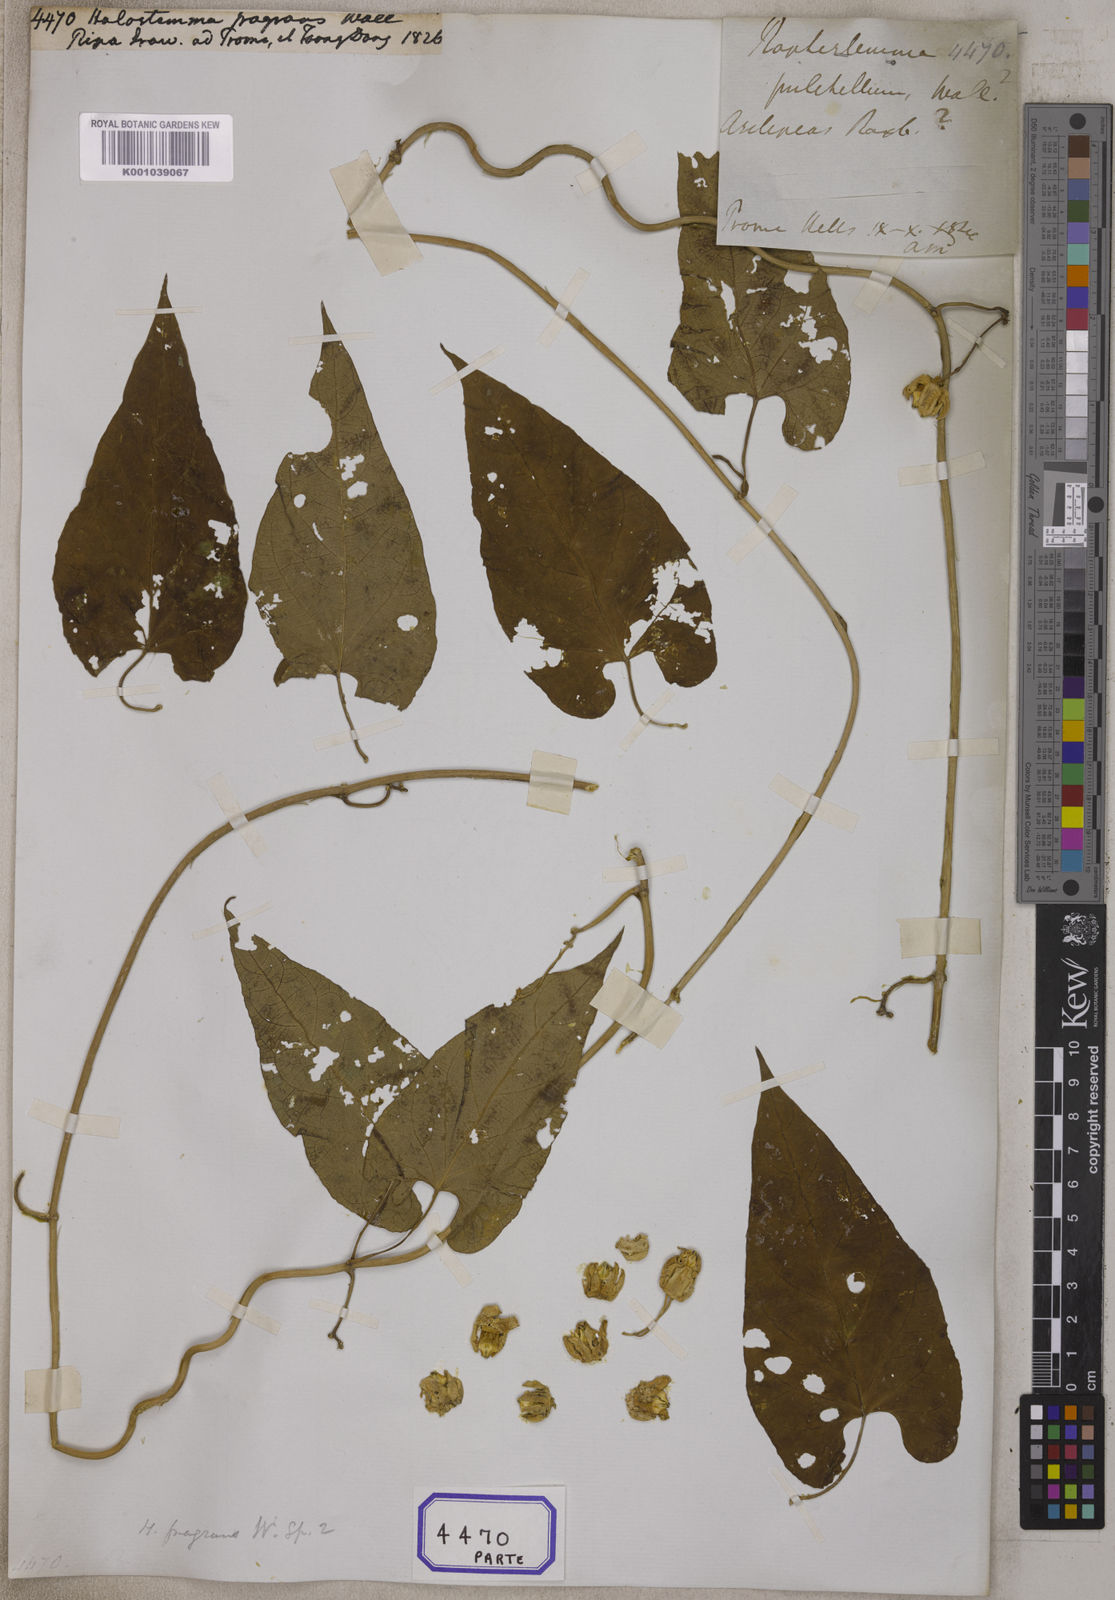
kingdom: Plantae
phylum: Tracheophyta
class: Magnoliopsida
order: Gentianales
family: Apocynaceae
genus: Cynanchum
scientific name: Cynanchum fragrans
